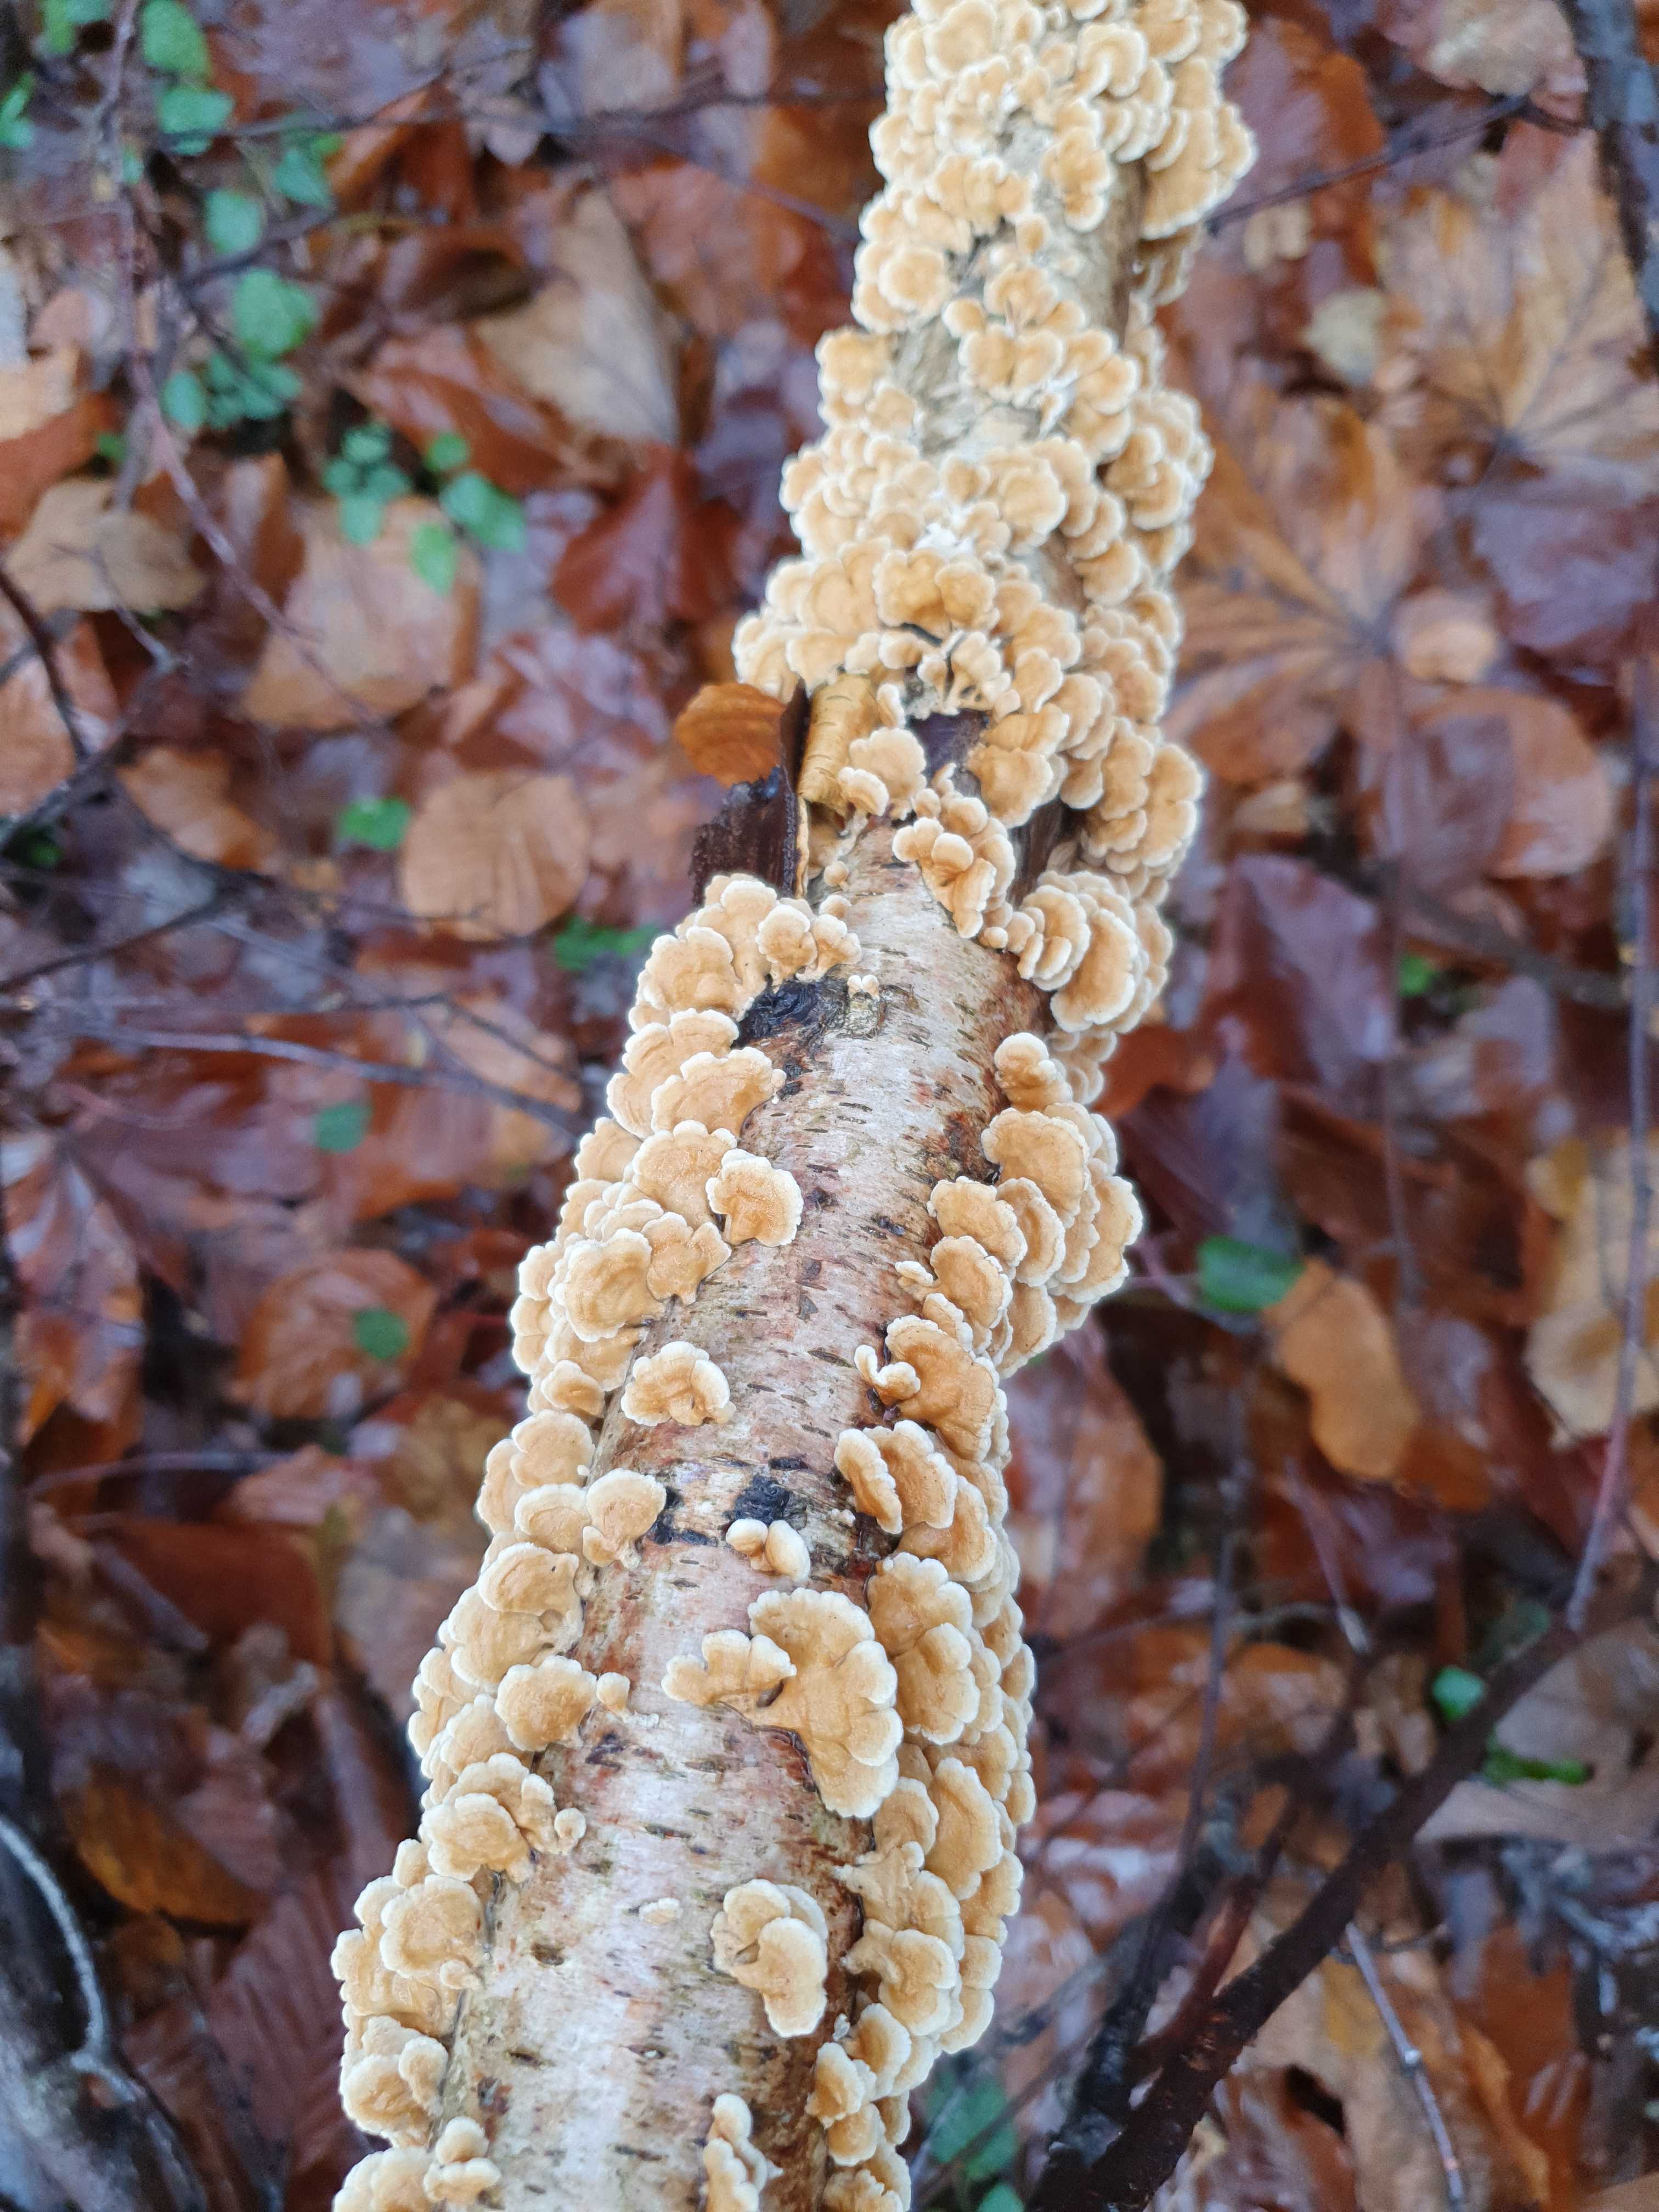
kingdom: Fungi
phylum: Basidiomycota
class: Agaricomycetes
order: Amylocorticiales
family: Amylocorticiaceae
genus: Plicaturopsis
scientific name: Plicaturopsis crispa
